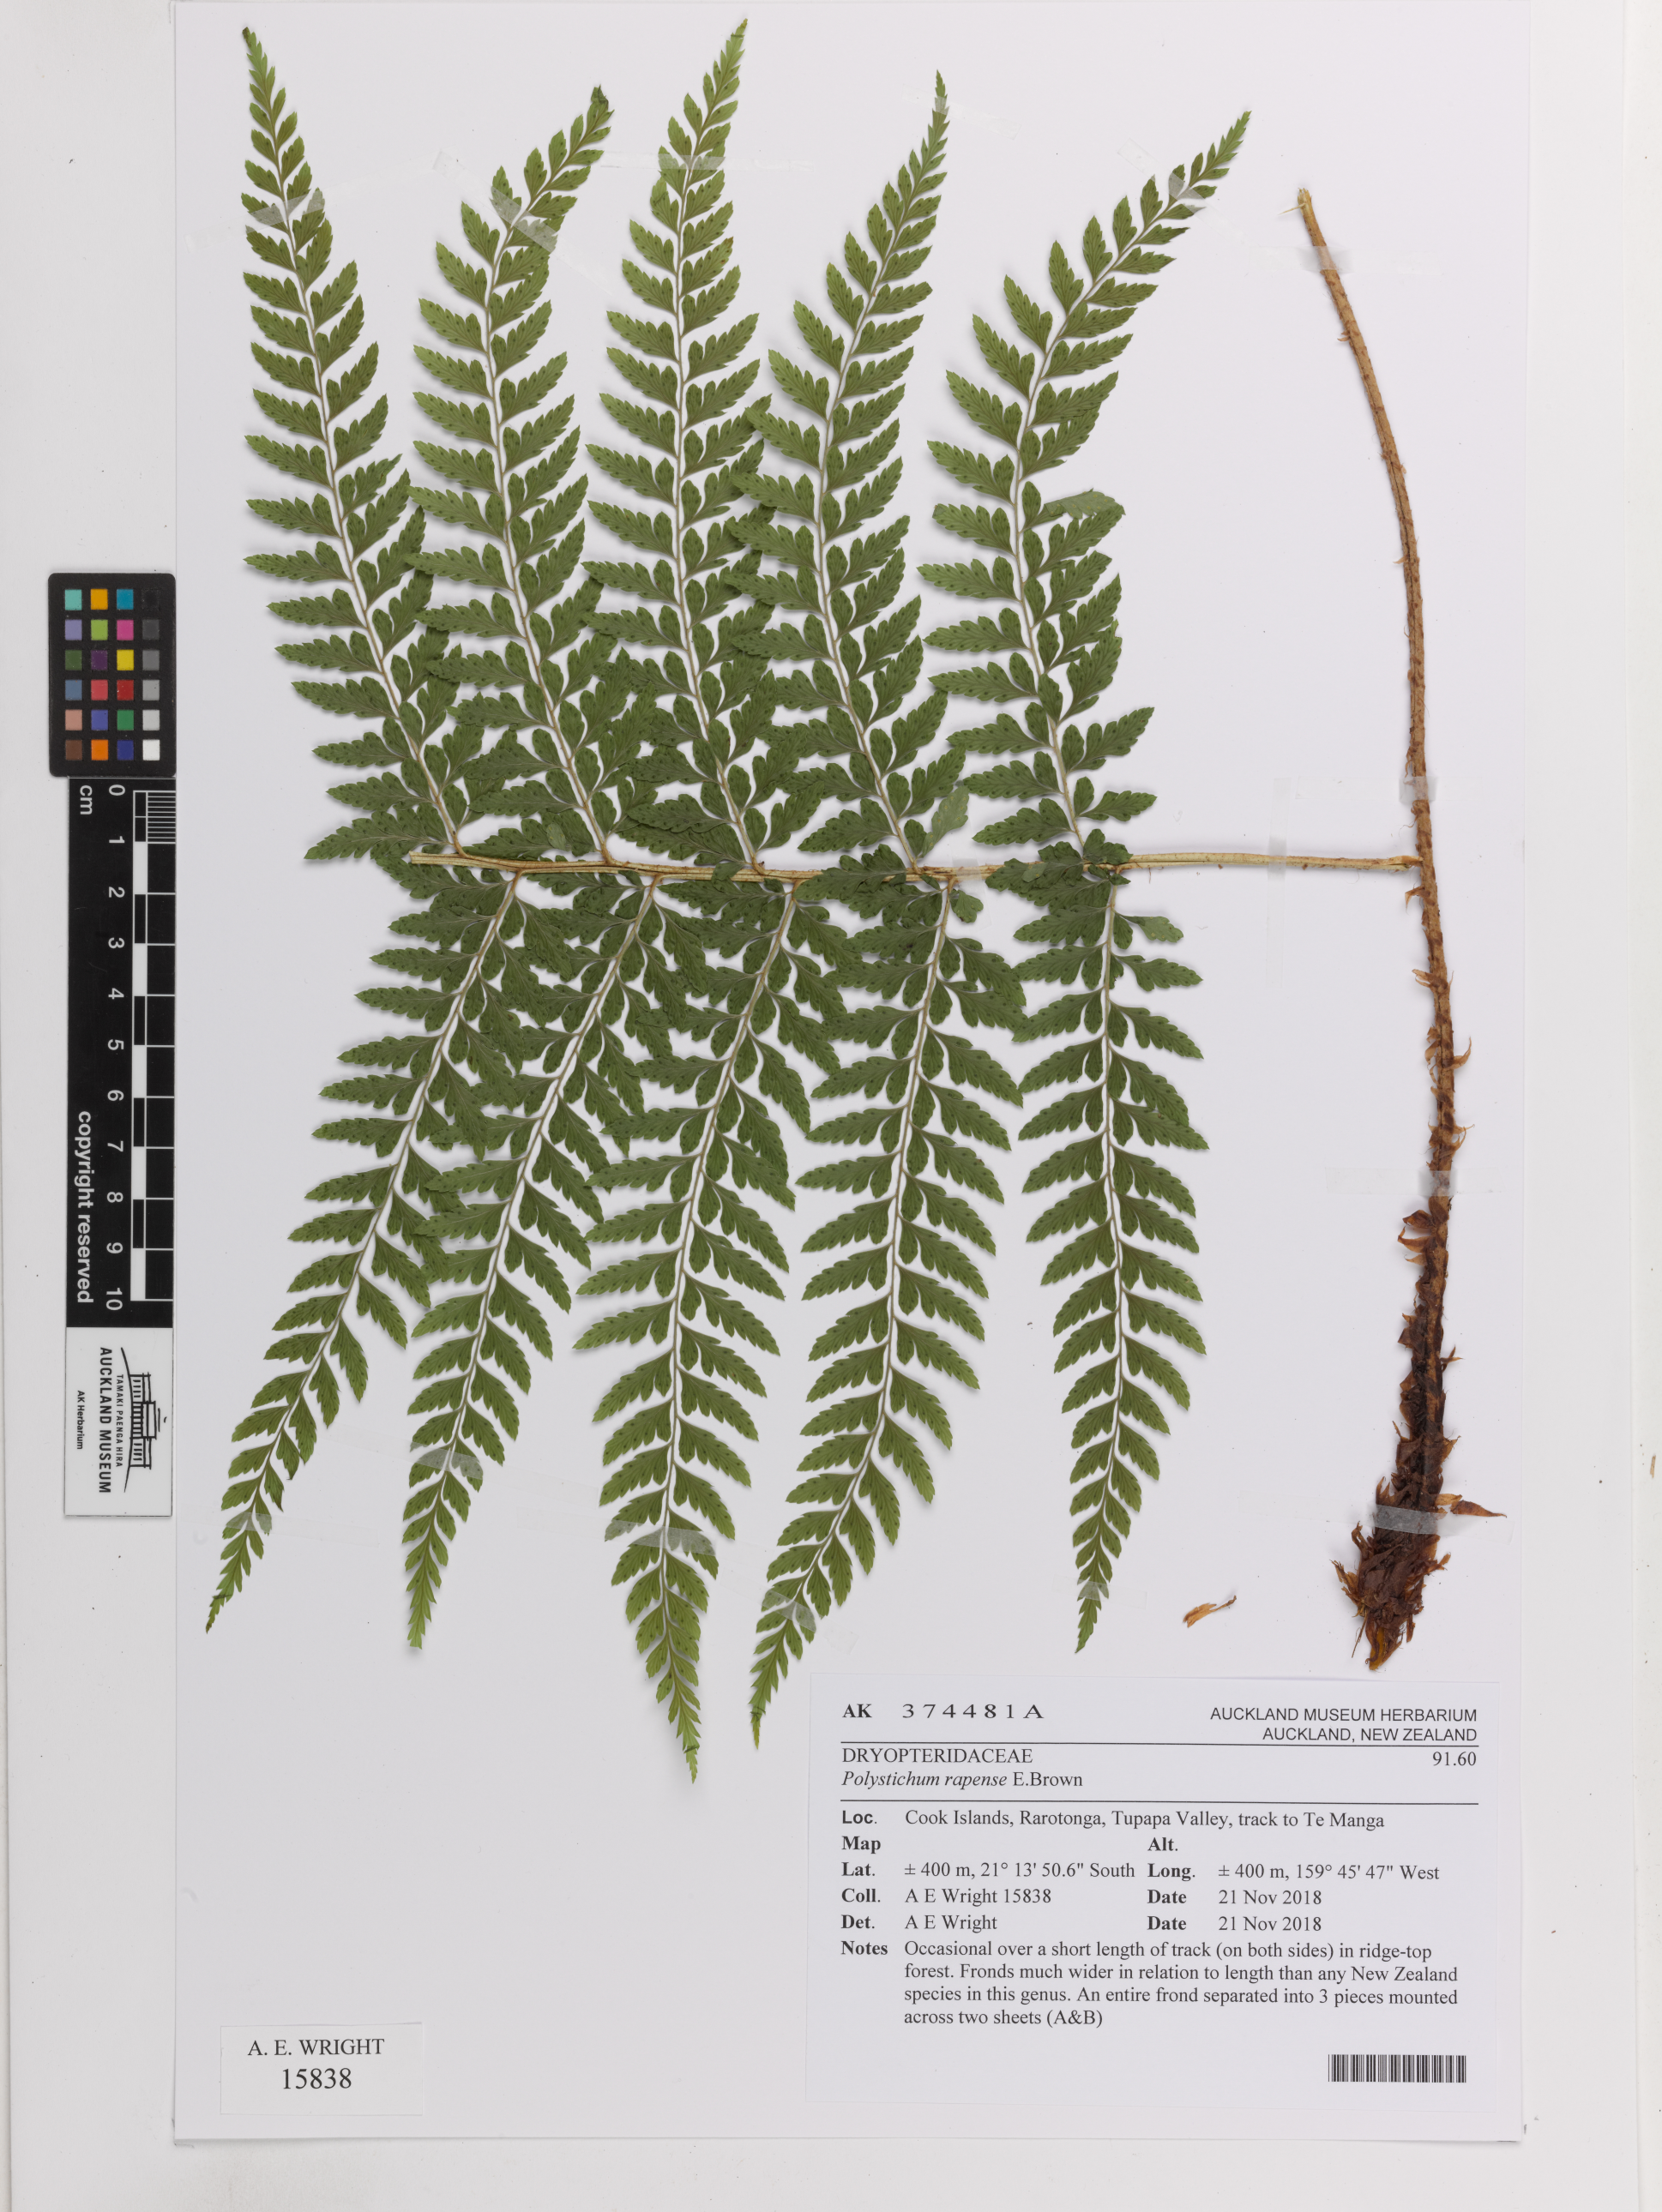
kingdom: Plantae
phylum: Tracheophyta
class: Polypodiopsida
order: Polypodiales
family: Dryopteridaceae
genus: Polystichum
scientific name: Polystichum rapense
